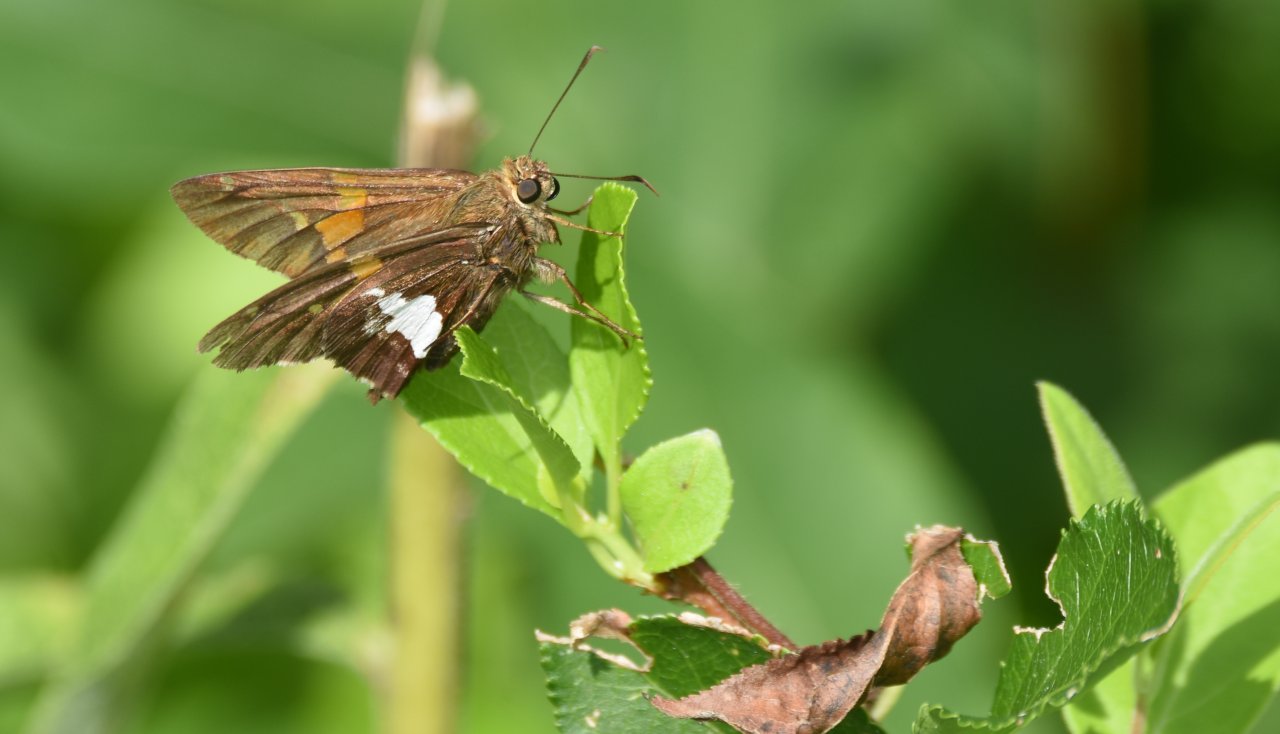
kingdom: Animalia
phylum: Arthropoda
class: Insecta
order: Lepidoptera
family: Hesperiidae
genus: Epargyreus
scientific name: Epargyreus clarus
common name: Silver-spotted Skipper
